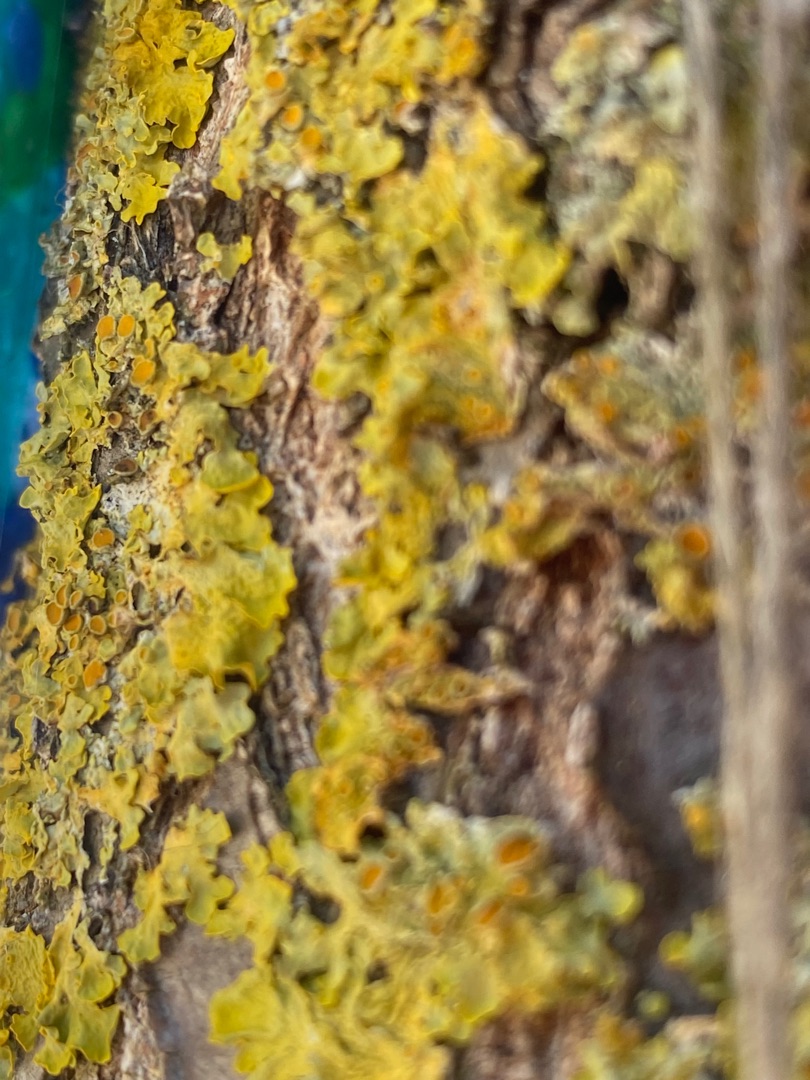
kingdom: Fungi
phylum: Ascomycota
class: Lecanoromycetes
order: Teloschistales
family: Teloschistaceae
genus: Xanthoria
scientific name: Xanthoria parietina
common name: Almindelig væggelav
